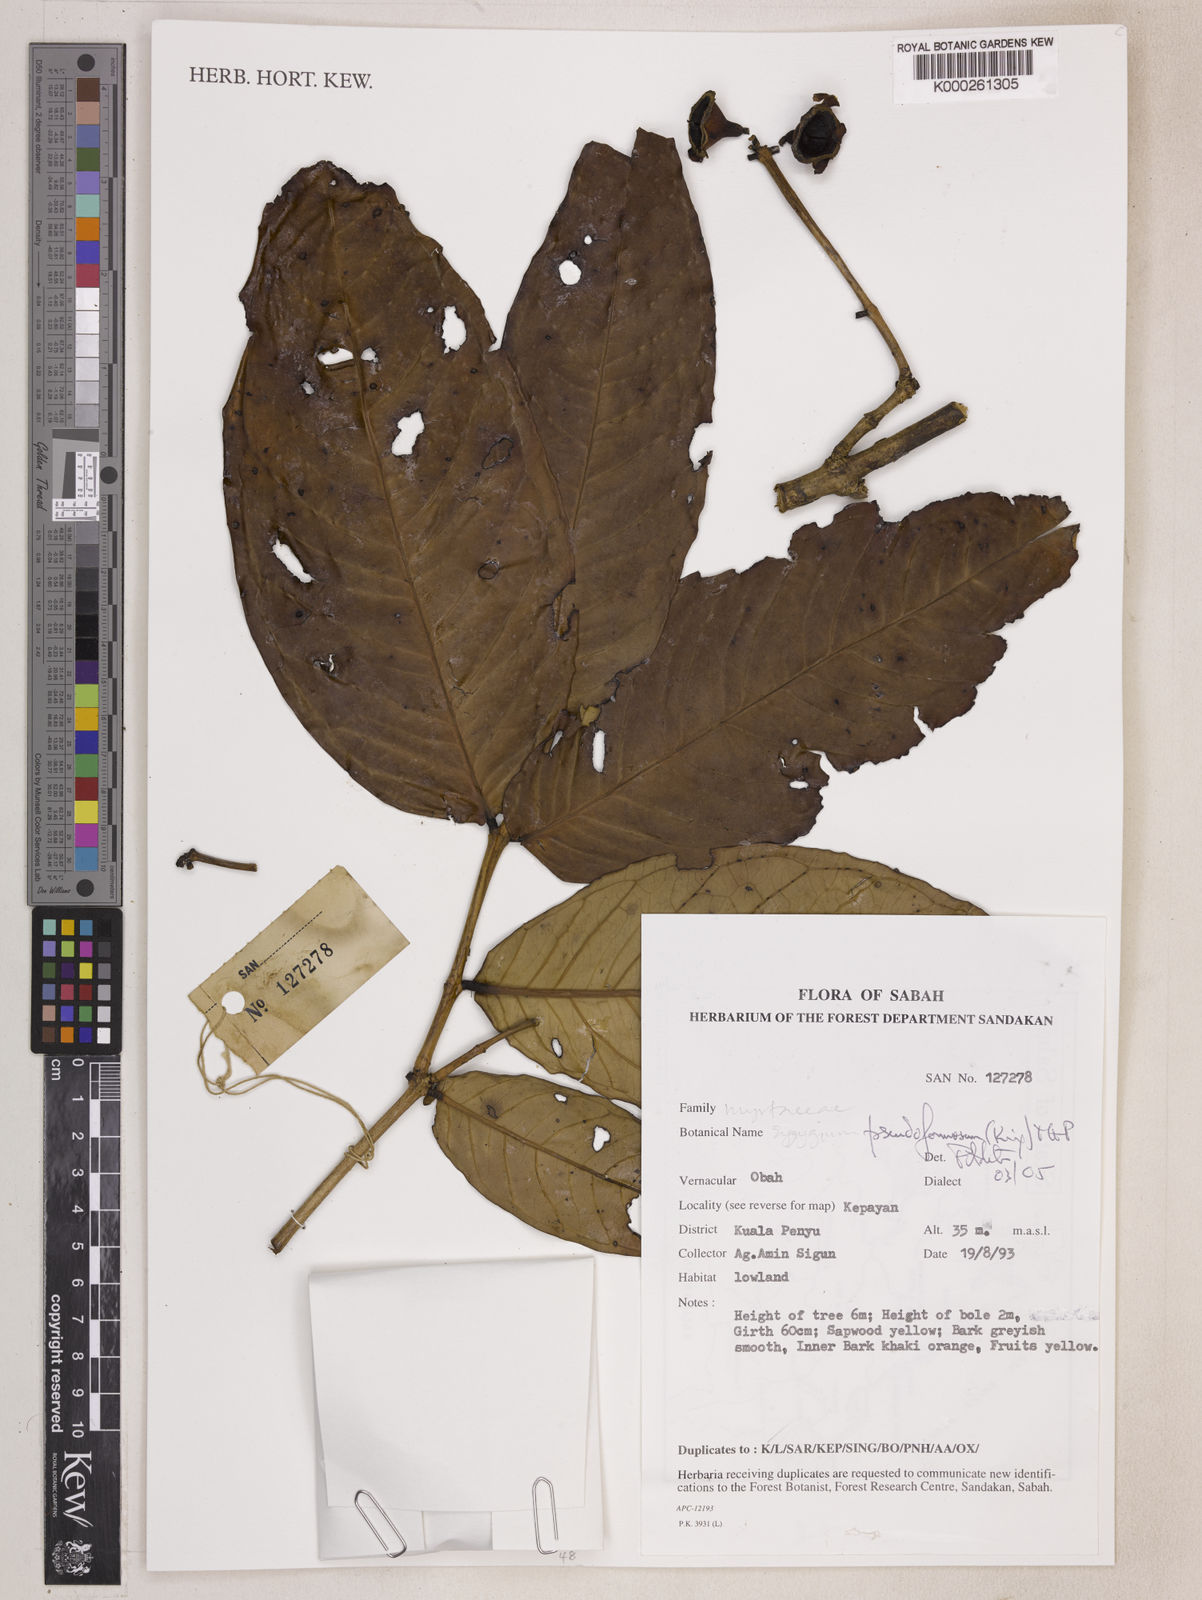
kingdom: Plantae
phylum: Tracheophyta
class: Magnoliopsida
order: Myrtales
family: Myrtaceae
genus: Syzygium
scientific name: Syzygium pseudoformosum
